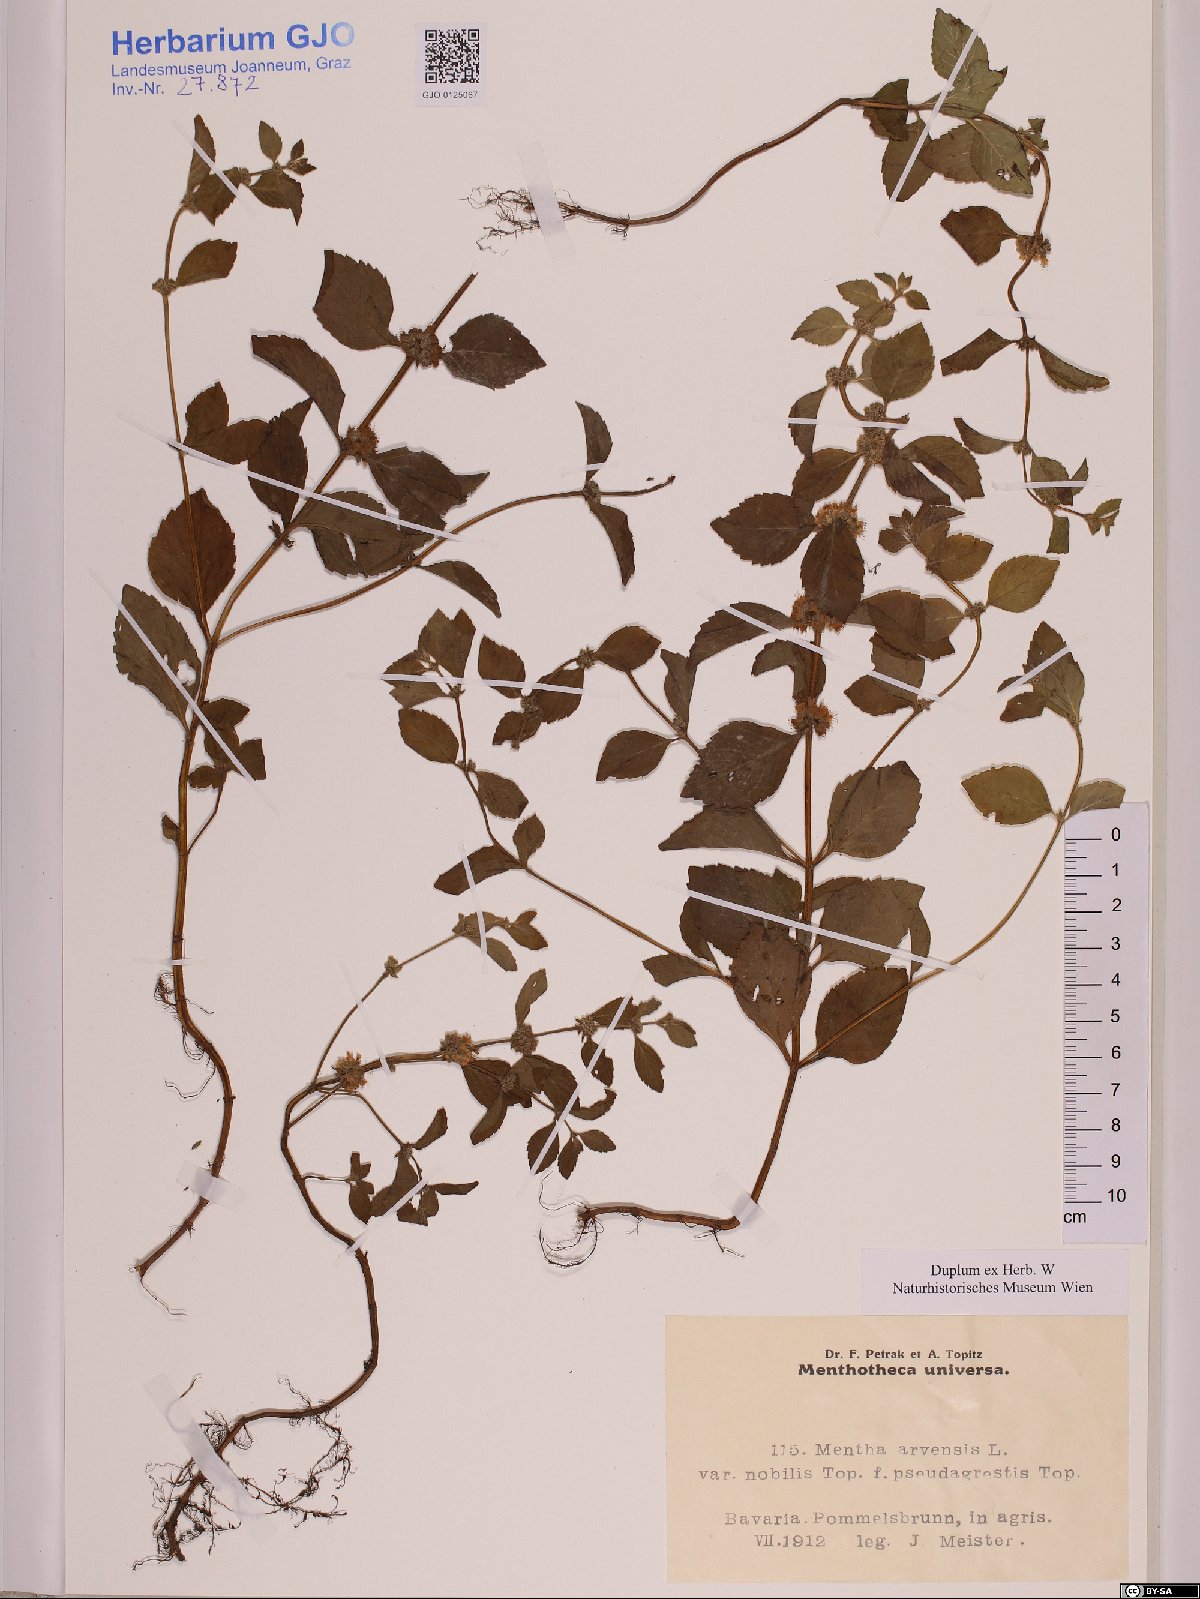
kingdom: Plantae
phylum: Tracheophyta
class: Magnoliopsida
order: Lamiales
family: Lamiaceae
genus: Mentha
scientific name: Mentha arvensis
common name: Corn mint
